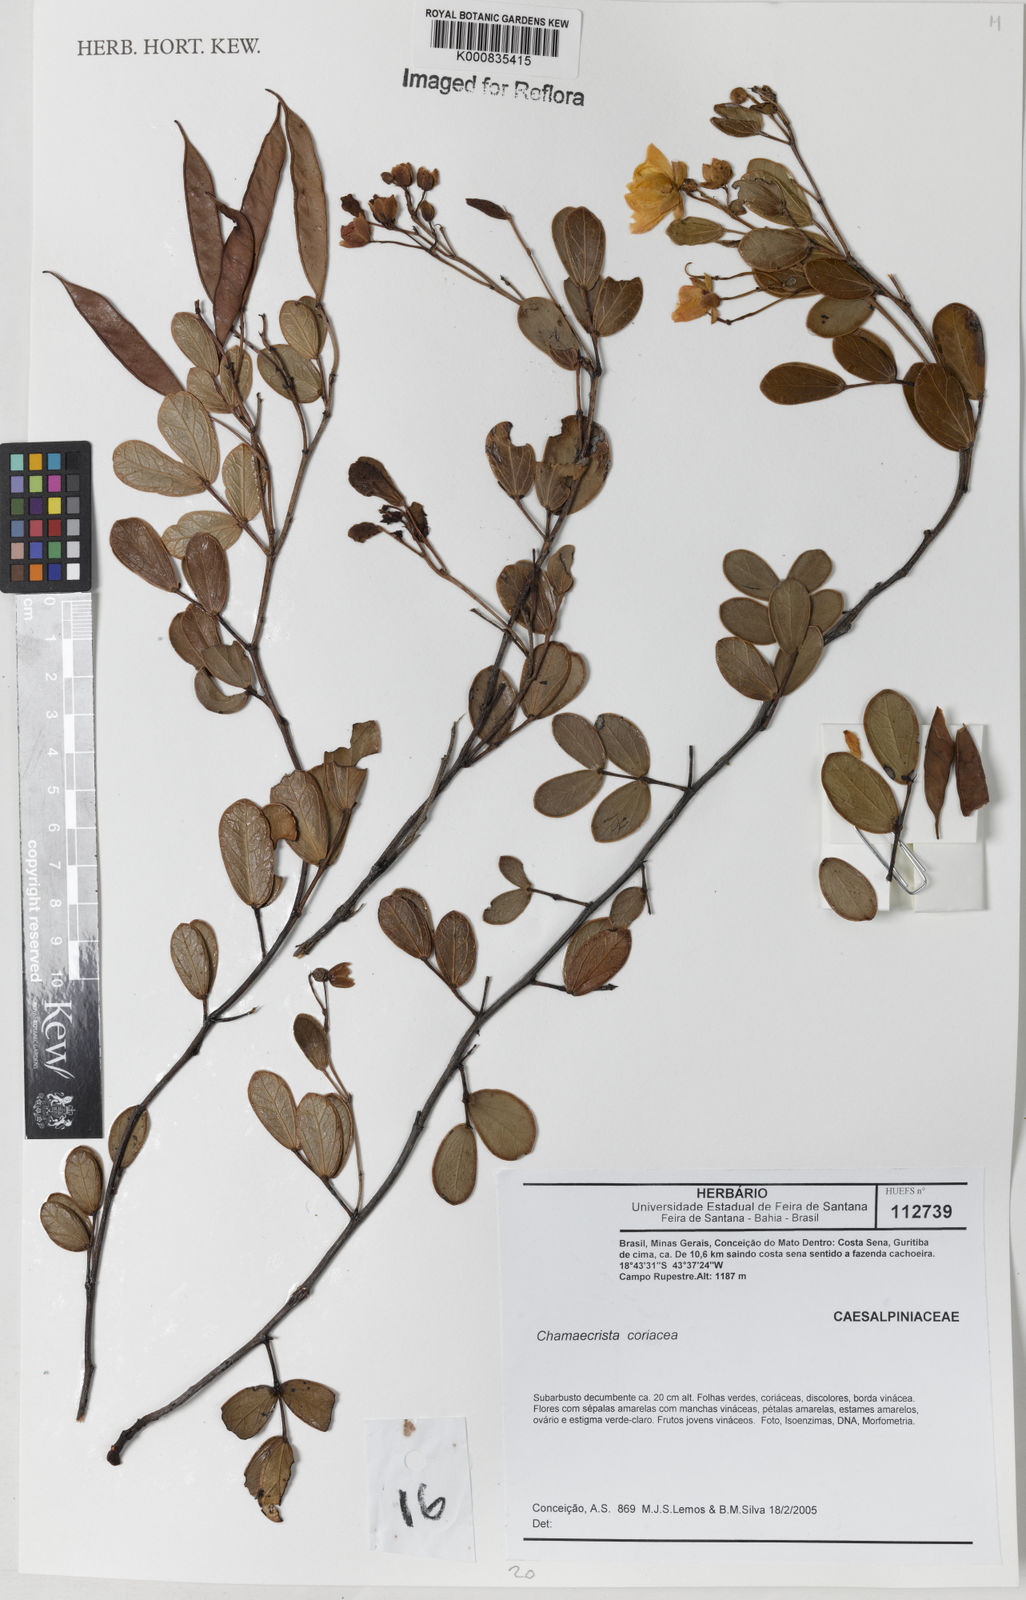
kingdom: Plantae
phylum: Tracheophyta
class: Magnoliopsida
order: Fabales
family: Fabaceae
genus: Chamaecrista
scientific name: Chamaecrista coriacea
